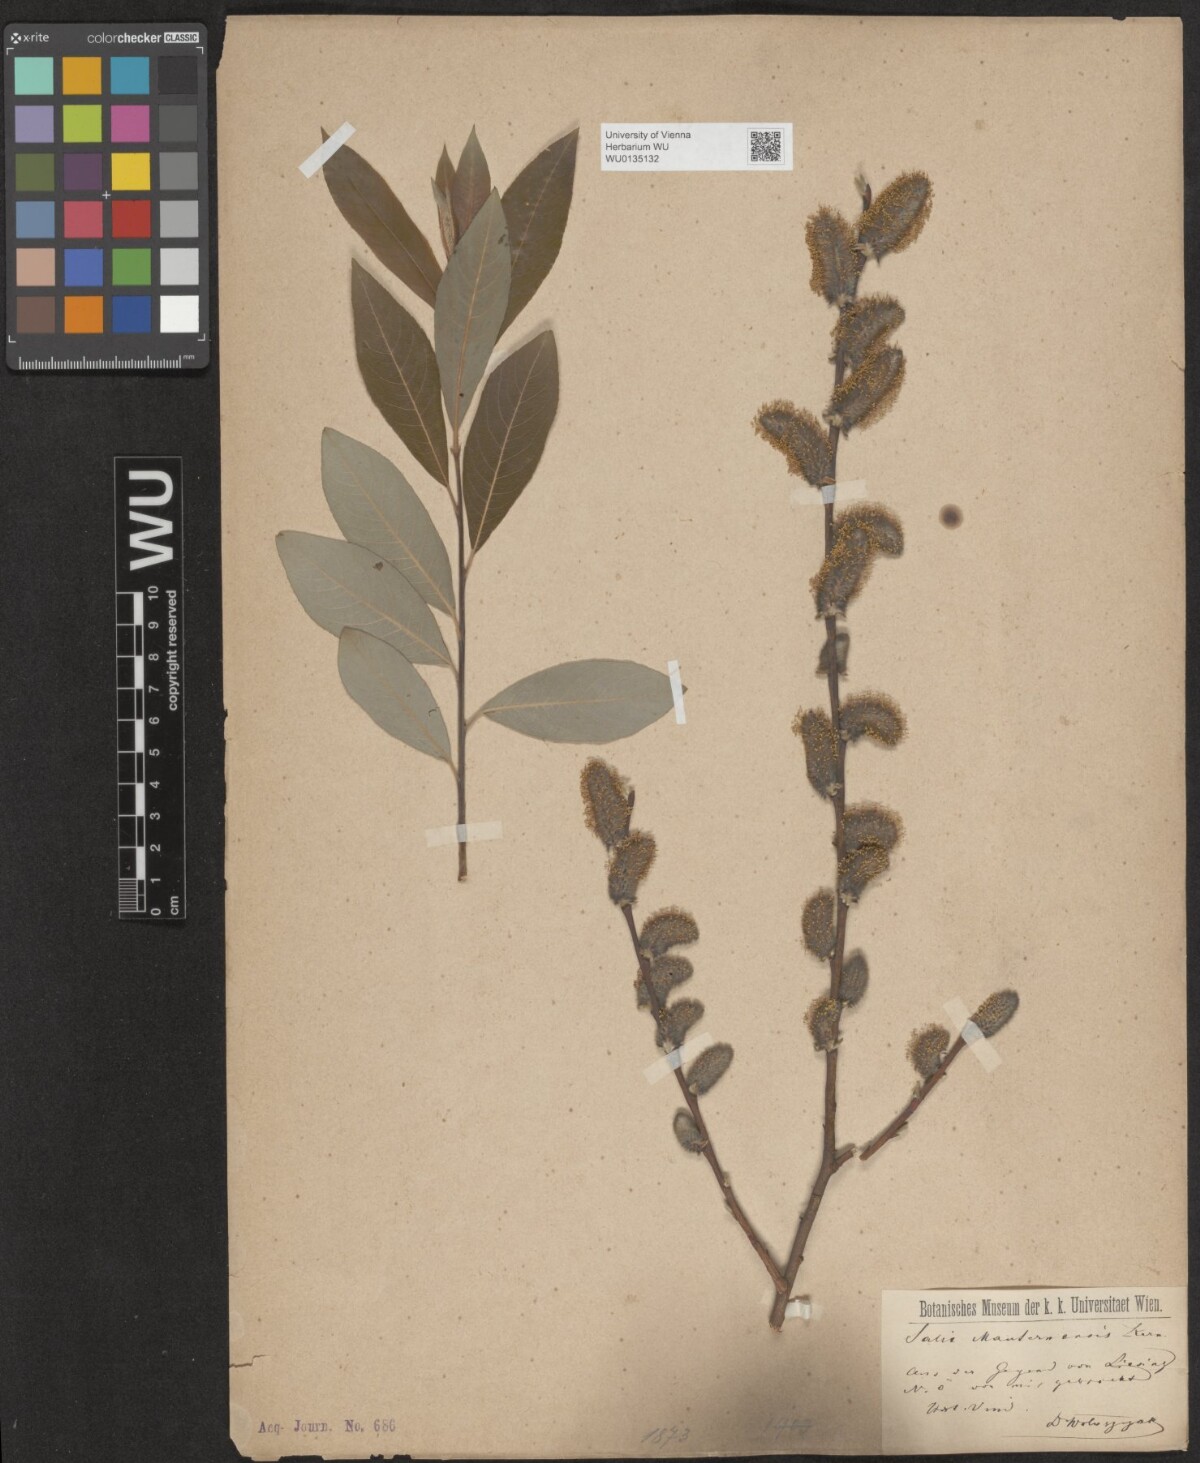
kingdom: Plantae
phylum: Tracheophyta
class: Magnoliopsida
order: Malpighiales
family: Salicaceae
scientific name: Salicaceae
